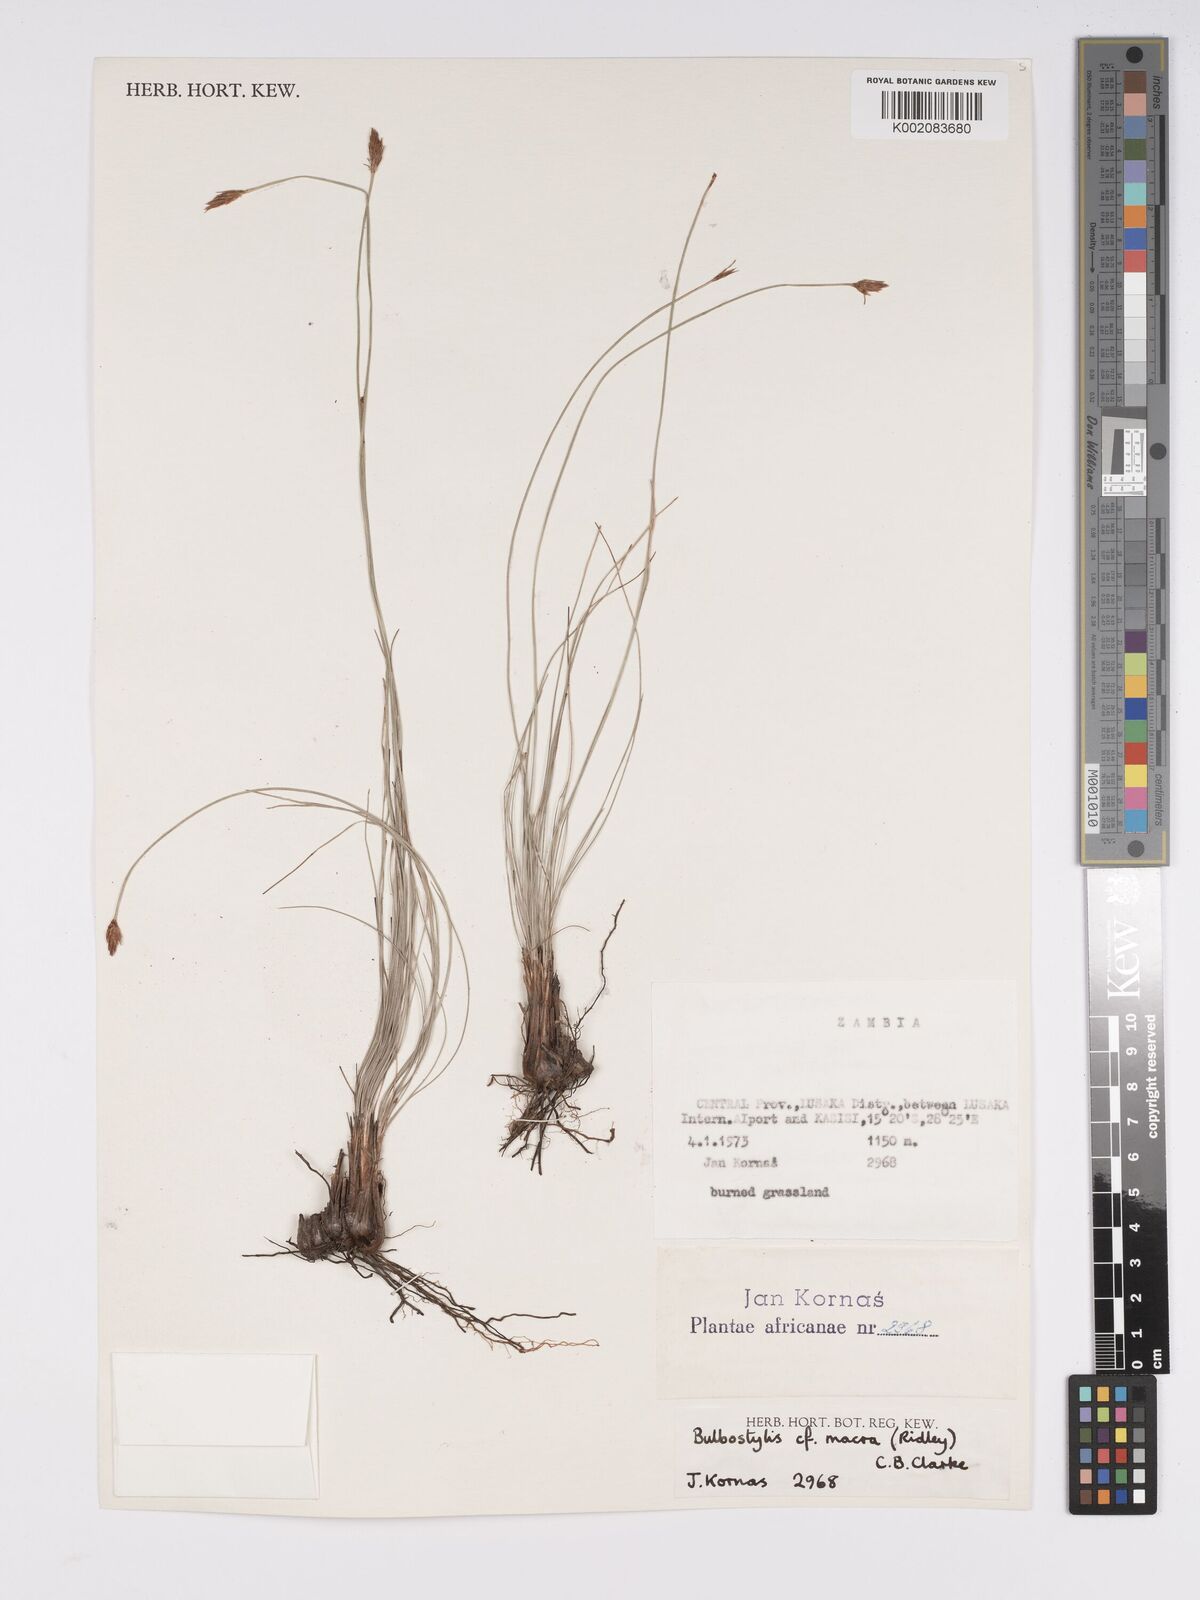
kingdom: Plantae
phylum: Tracheophyta
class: Liliopsida
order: Poales
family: Cyperaceae
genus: Bulbostylis
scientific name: Bulbostylis macra
